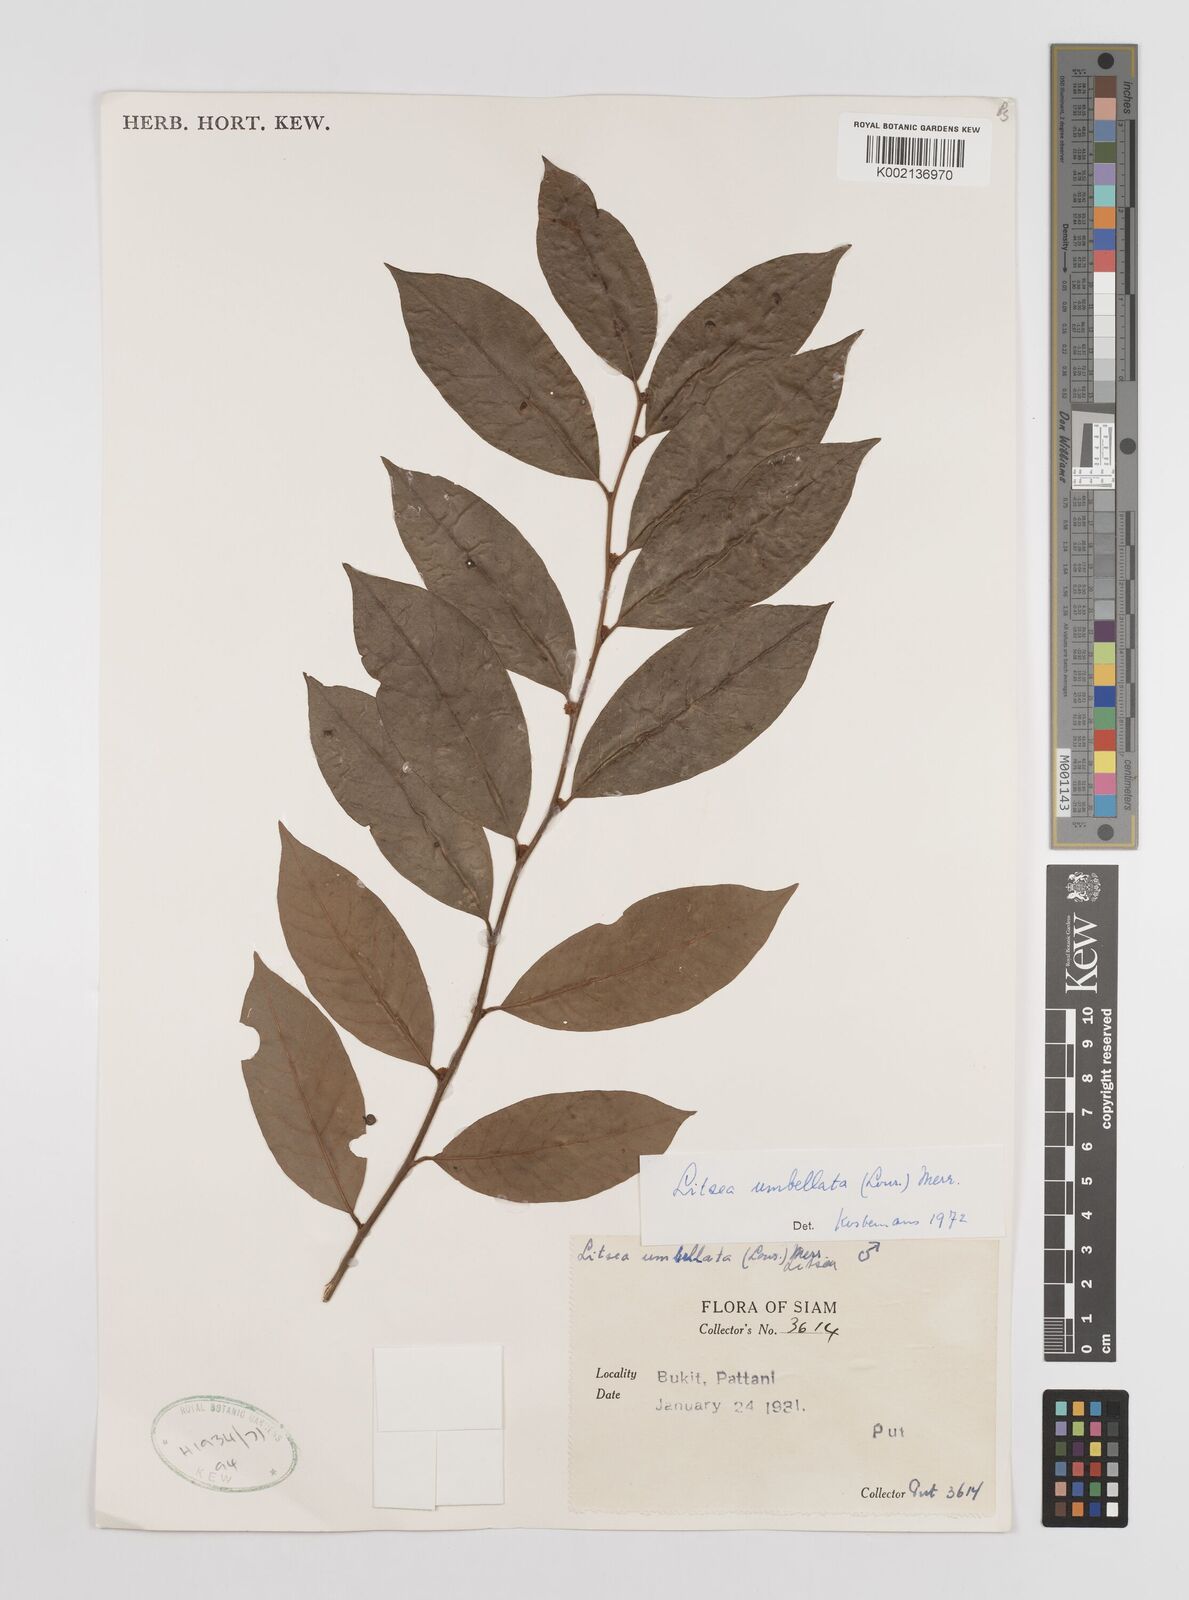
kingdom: Plantae
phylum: Tracheophyta
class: Magnoliopsida
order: Laurales
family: Lauraceae
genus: Litsea
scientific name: Litsea umbellata
